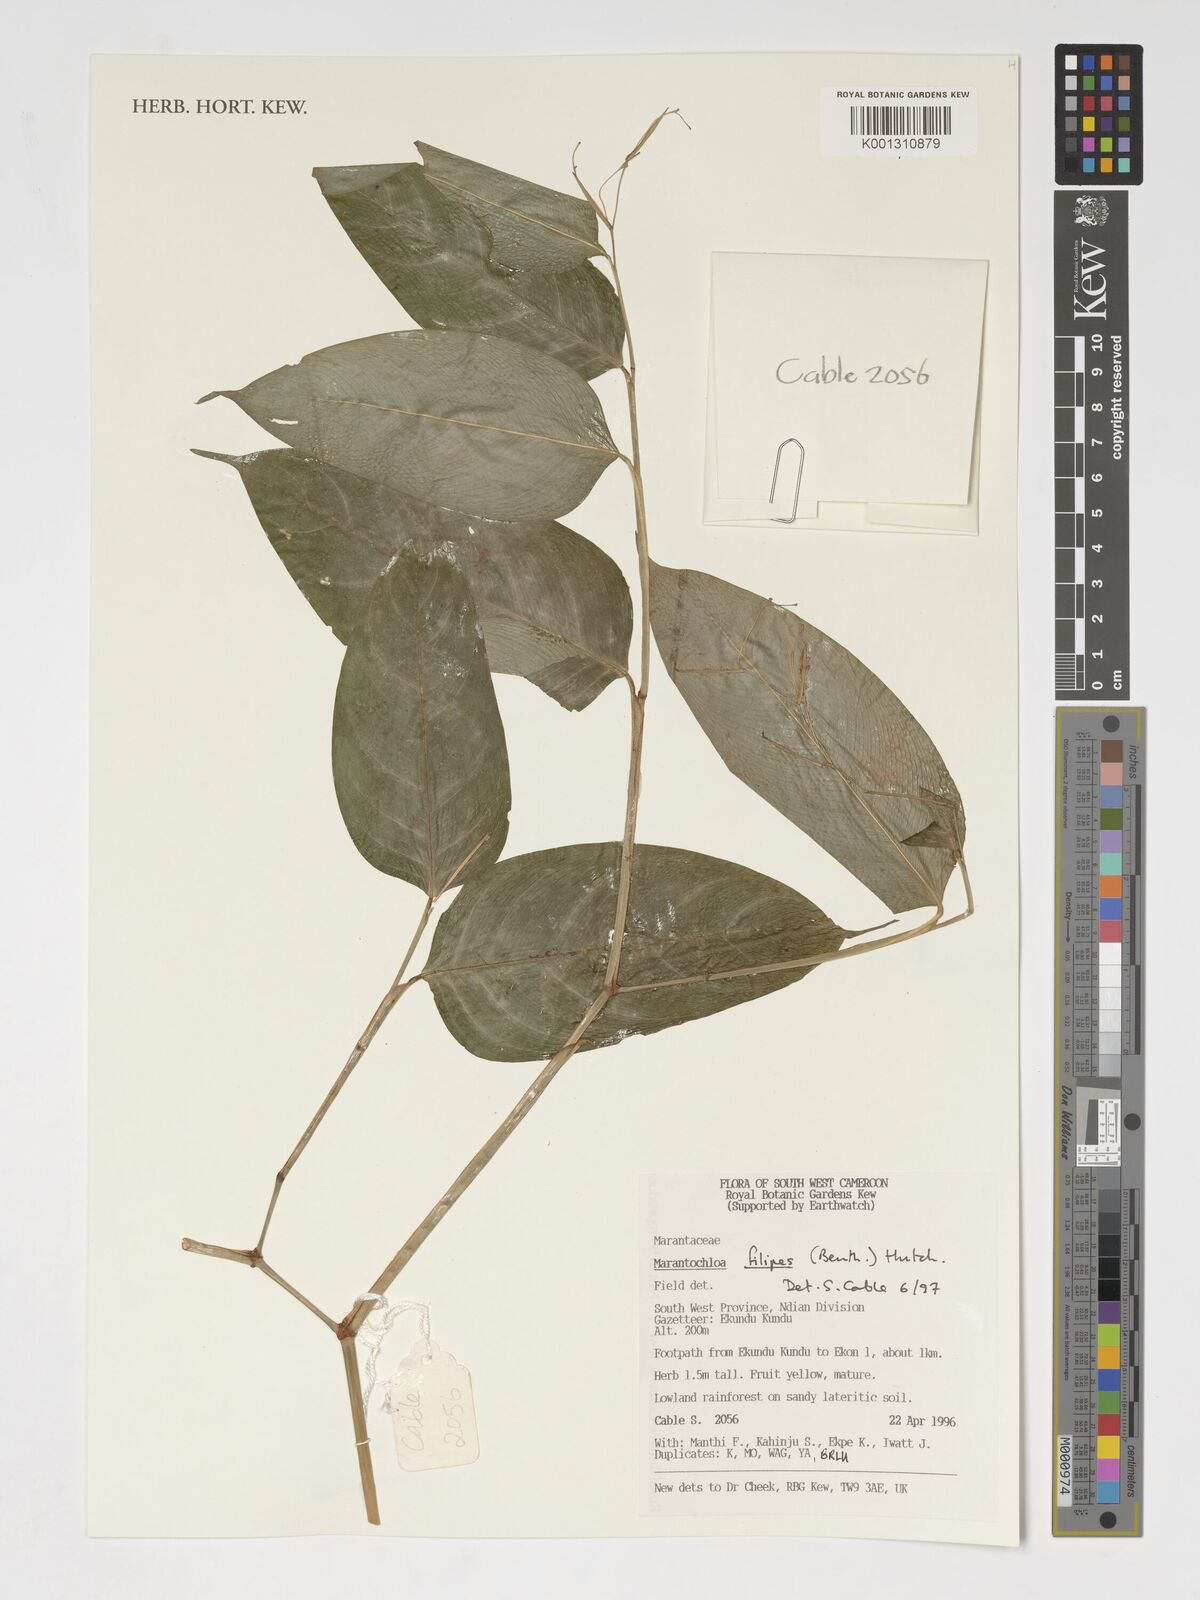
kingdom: Plantae
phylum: Tracheophyta
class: Liliopsida
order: Zingiberales
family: Marantaceae
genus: Marantochloa
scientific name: Marantochloa filipes
